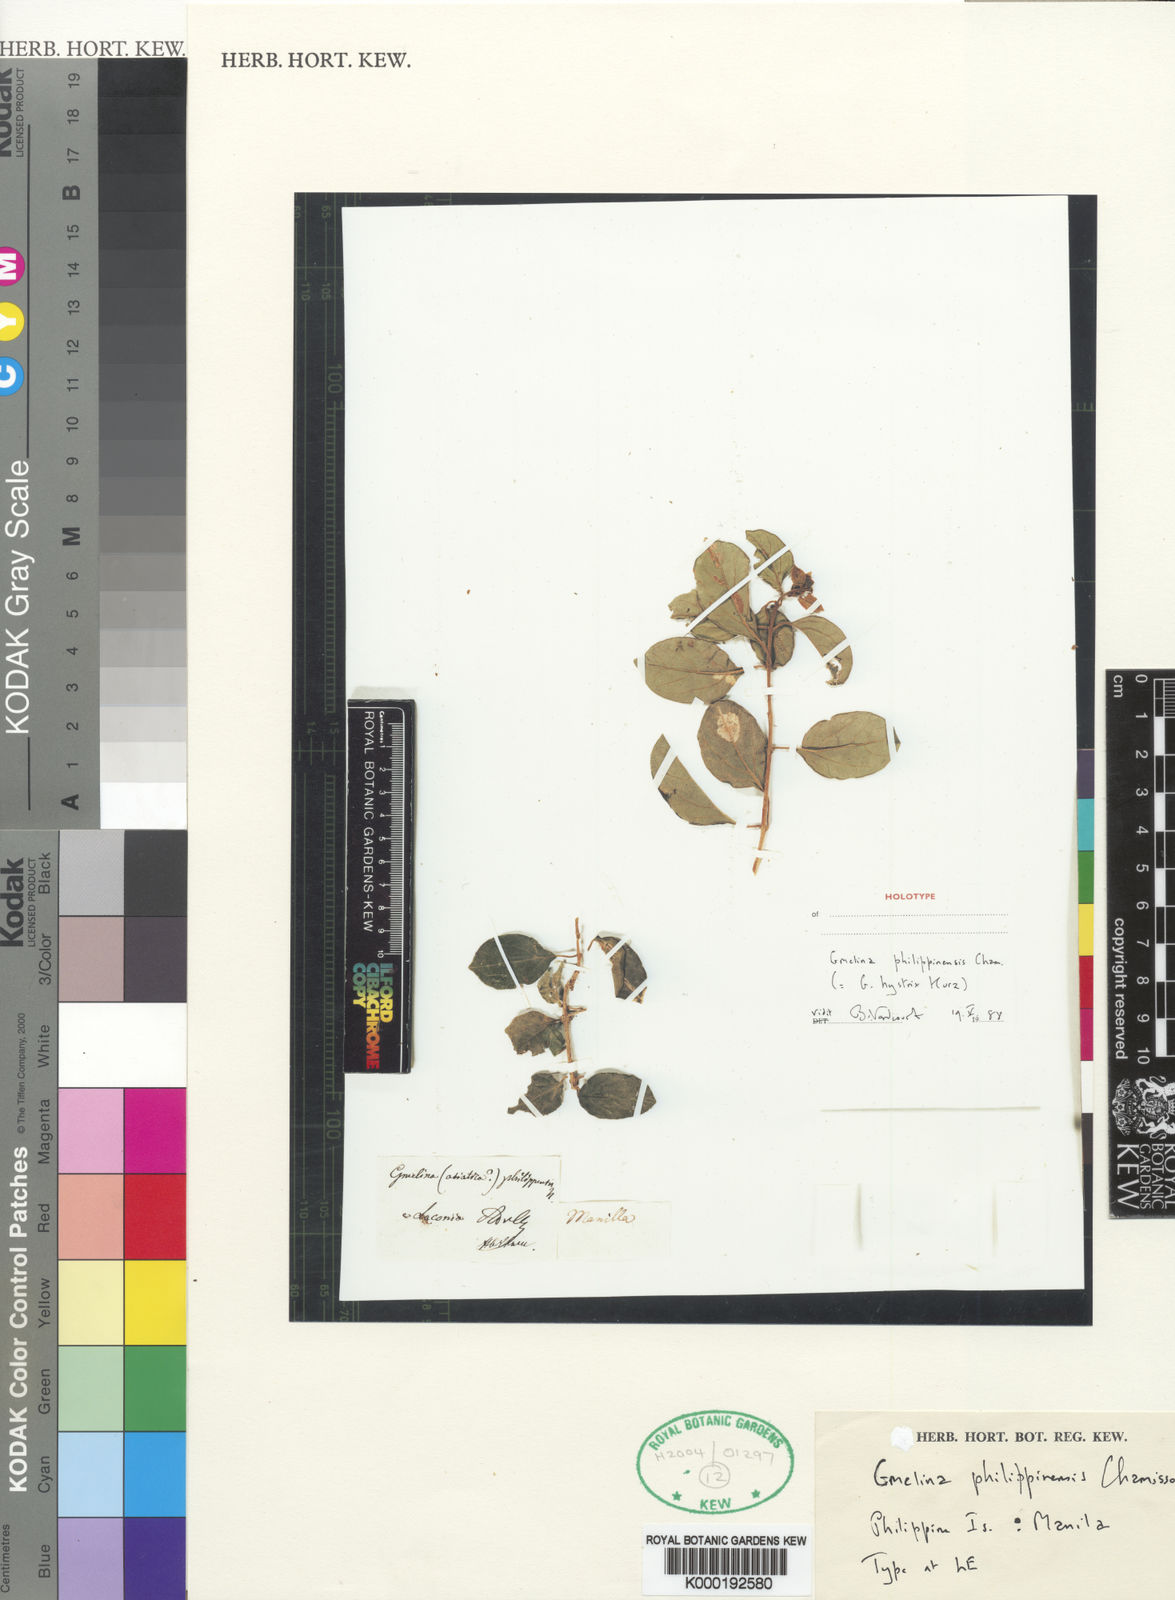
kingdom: Plantae
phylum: Tracheophyta
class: Magnoliopsida
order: Lamiales
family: Lamiaceae
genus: Gmelina
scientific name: Gmelina
